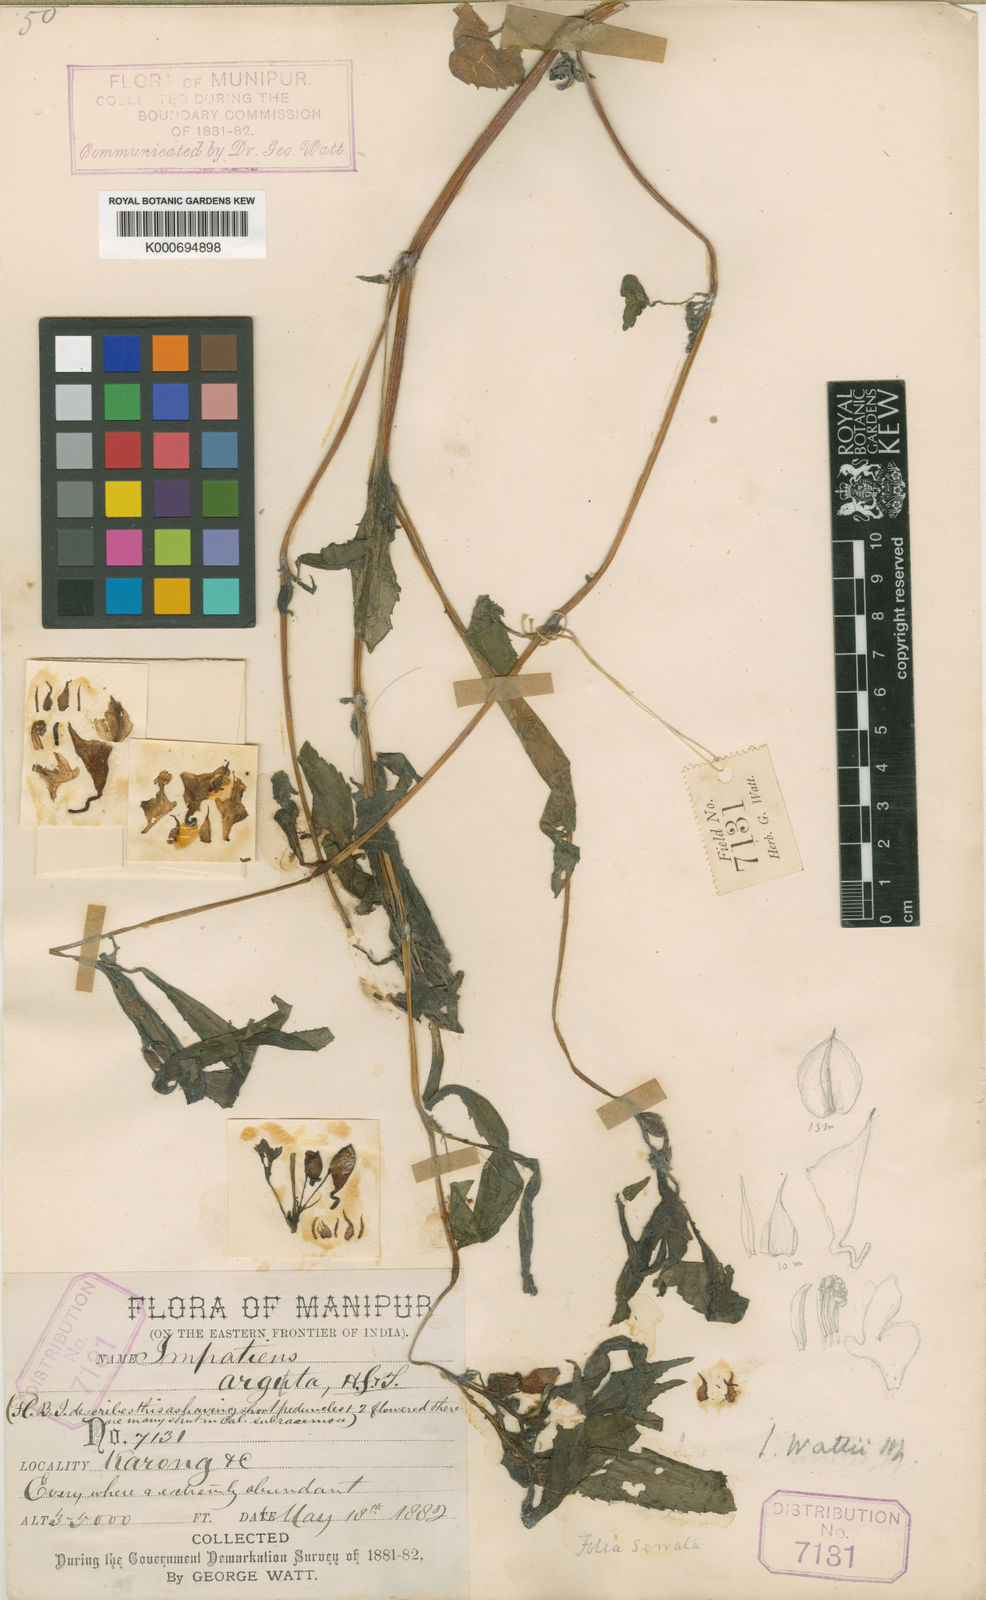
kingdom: Plantae
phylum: Tracheophyta
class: Magnoliopsida
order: Ericales
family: Balsaminaceae
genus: Impatiens
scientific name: Impatiens wattii
